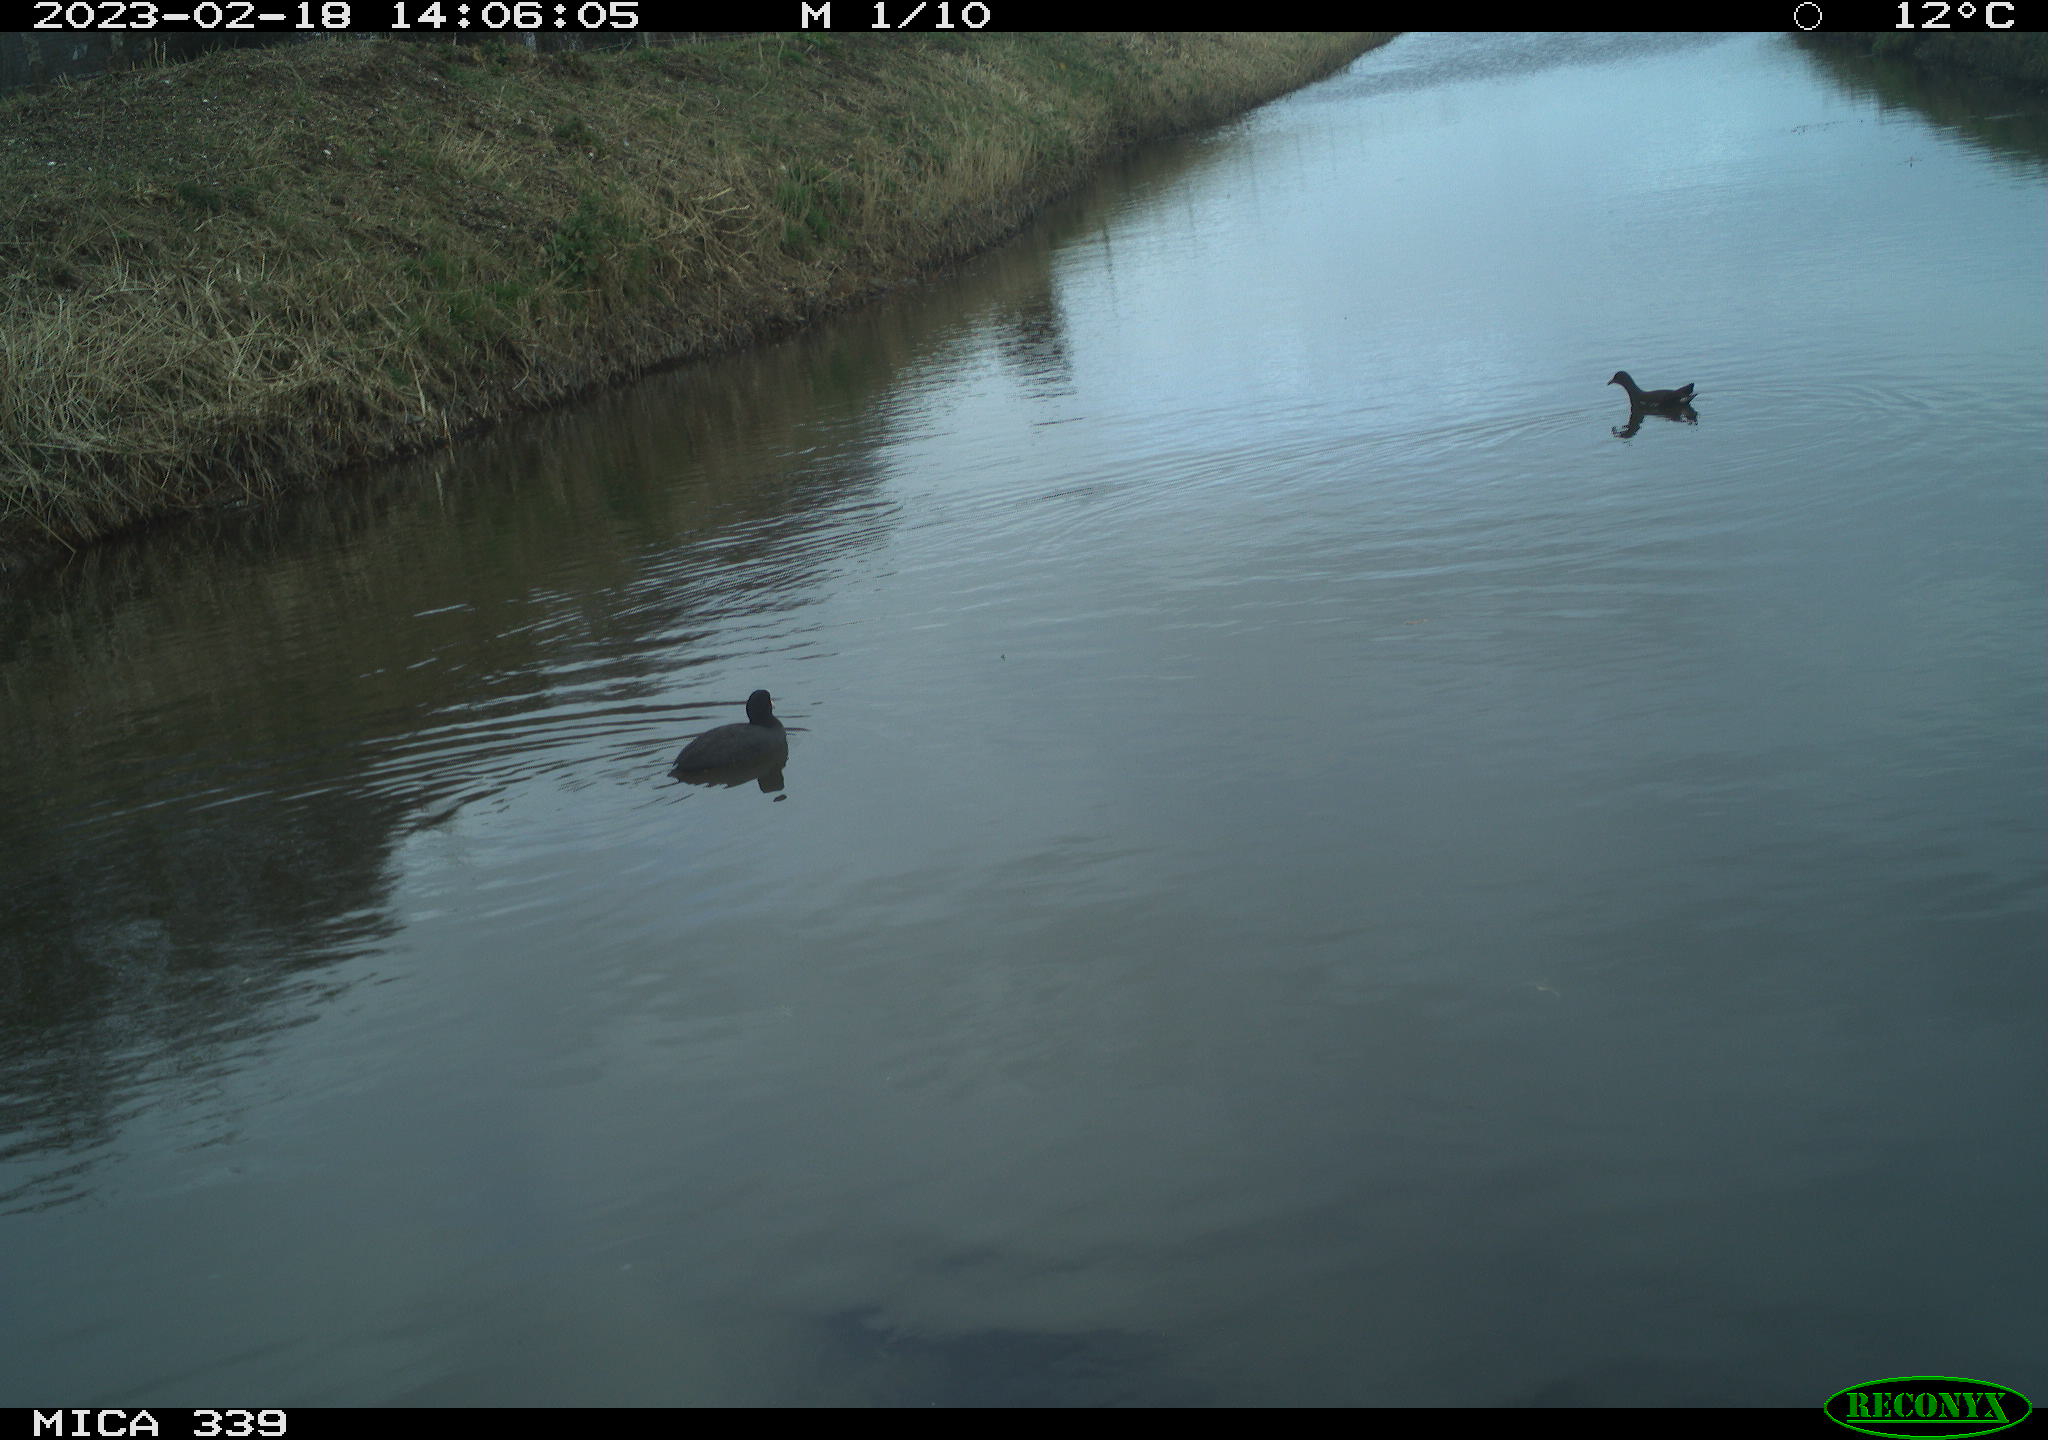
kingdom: Animalia
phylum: Chordata
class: Aves
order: Gruiformes
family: Rallidae
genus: Gallinula
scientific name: Gallinula chloropus
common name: Common moorhen
